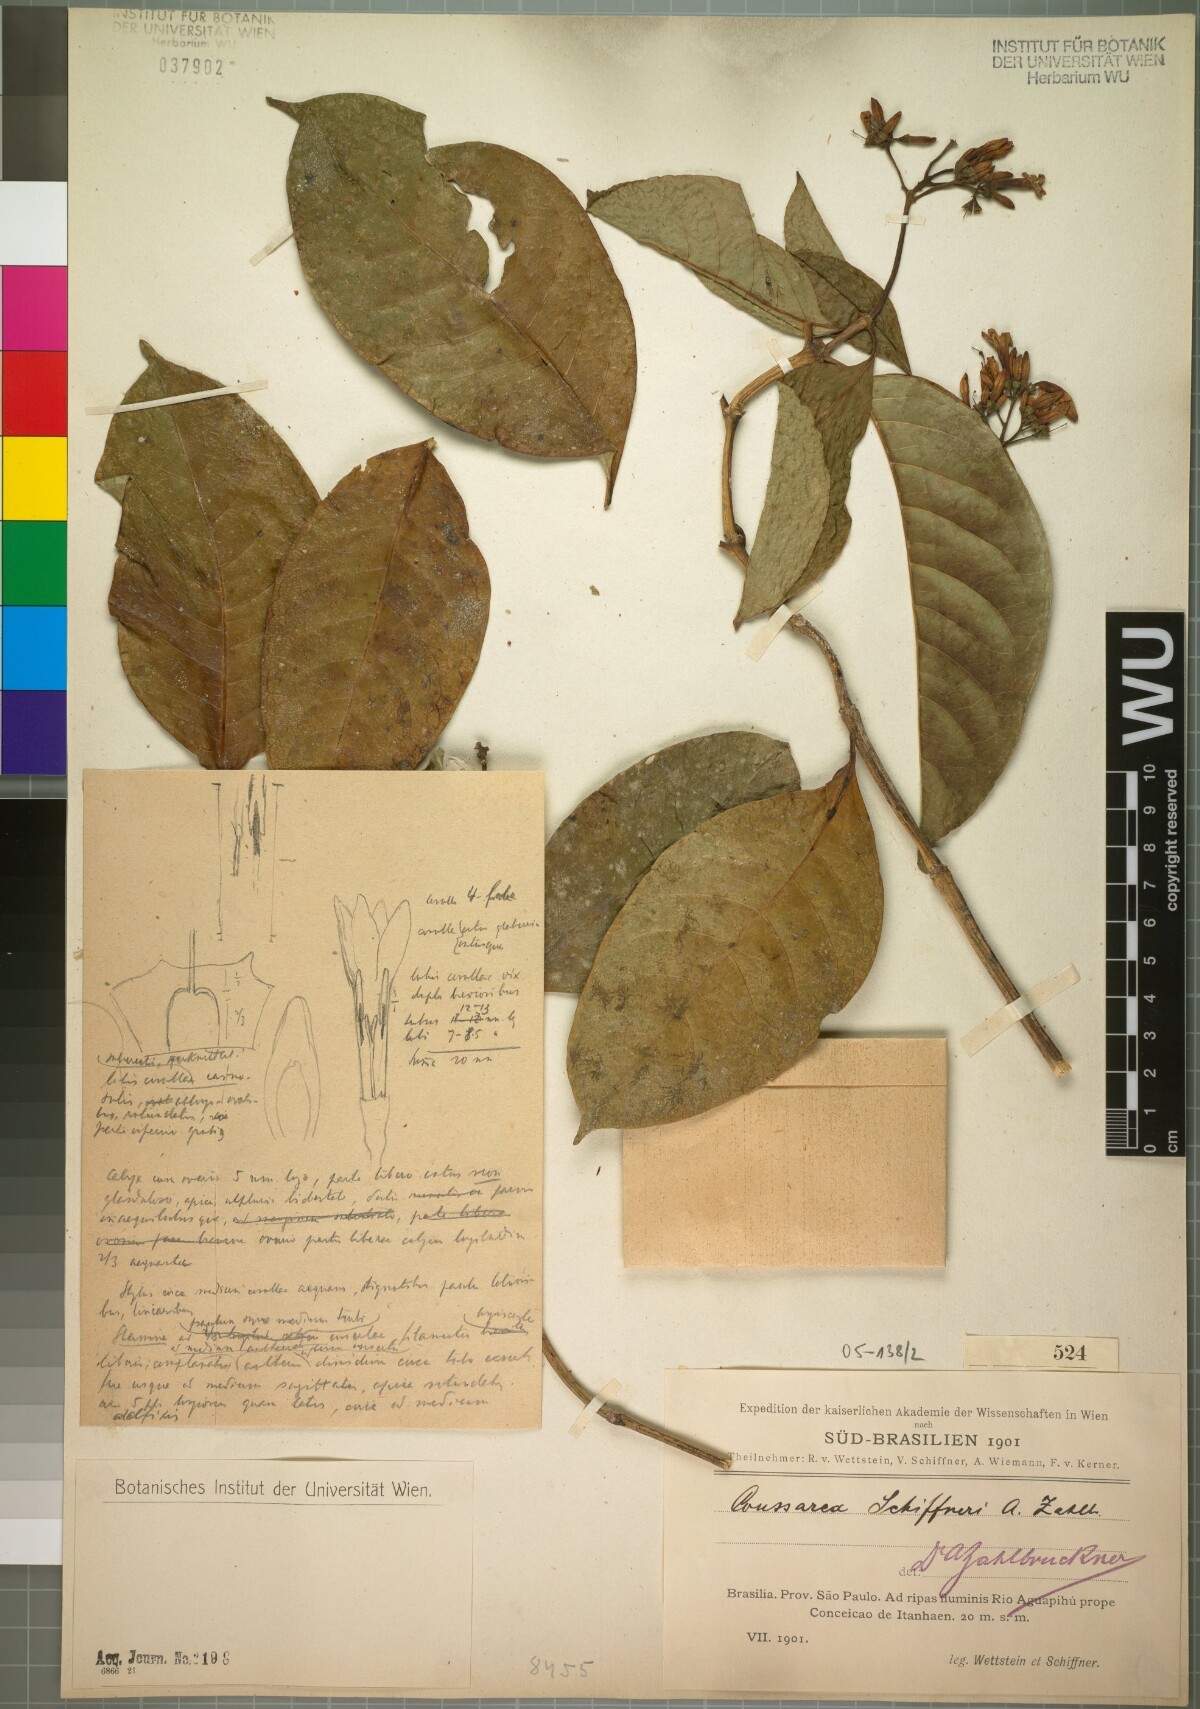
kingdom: Plantae
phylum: Tracheophyta
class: Magnoliopsida
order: Gentianales
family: Rubiaceae
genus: Coussarea
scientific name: Coussarea schiffneri
